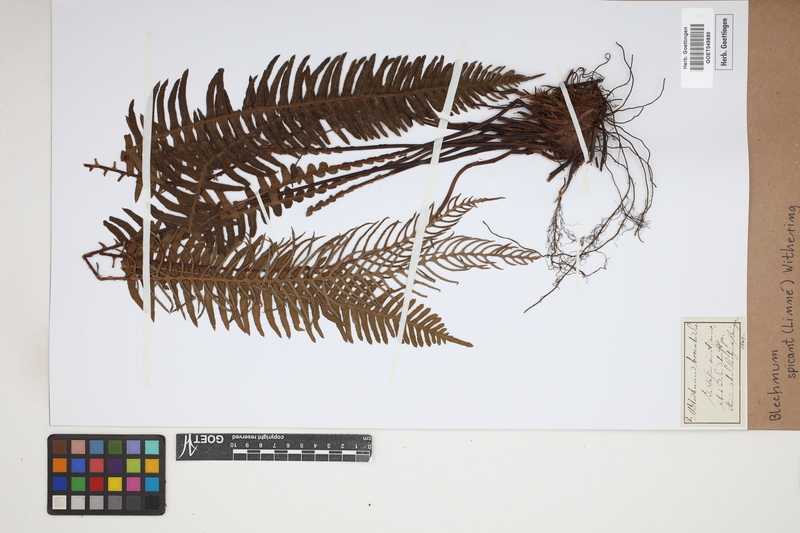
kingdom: Plantae
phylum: Tracheophyta
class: Polypodiopsida
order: Polypodiales
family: Blechnaceae
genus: Struthiopteris
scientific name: Struthiopteris spicant
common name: Deer fern
